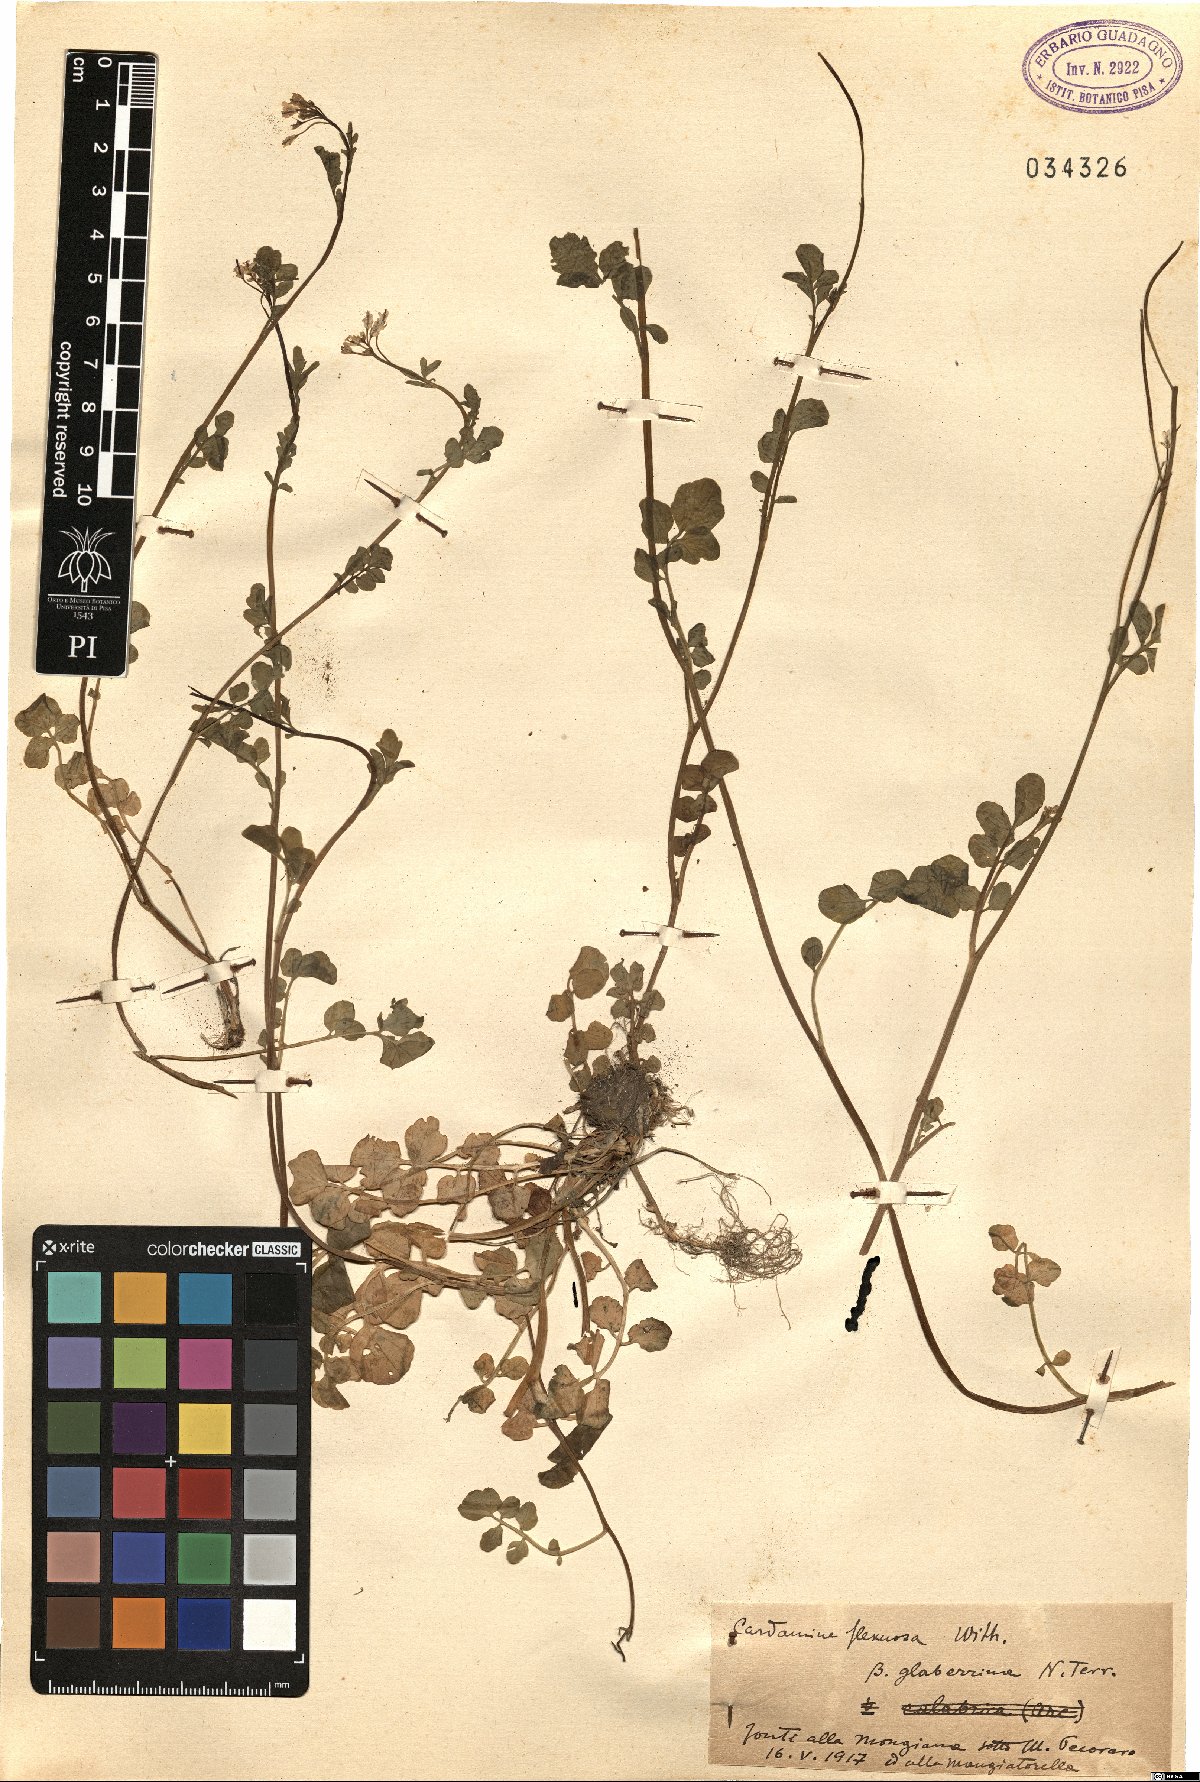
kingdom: Plantae
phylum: Tracheophyta
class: Magnoliopsida
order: Brassicales
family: Brassicaceae
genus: Cardamine
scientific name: Cardamine flexuosa
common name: Woodland bittercress
